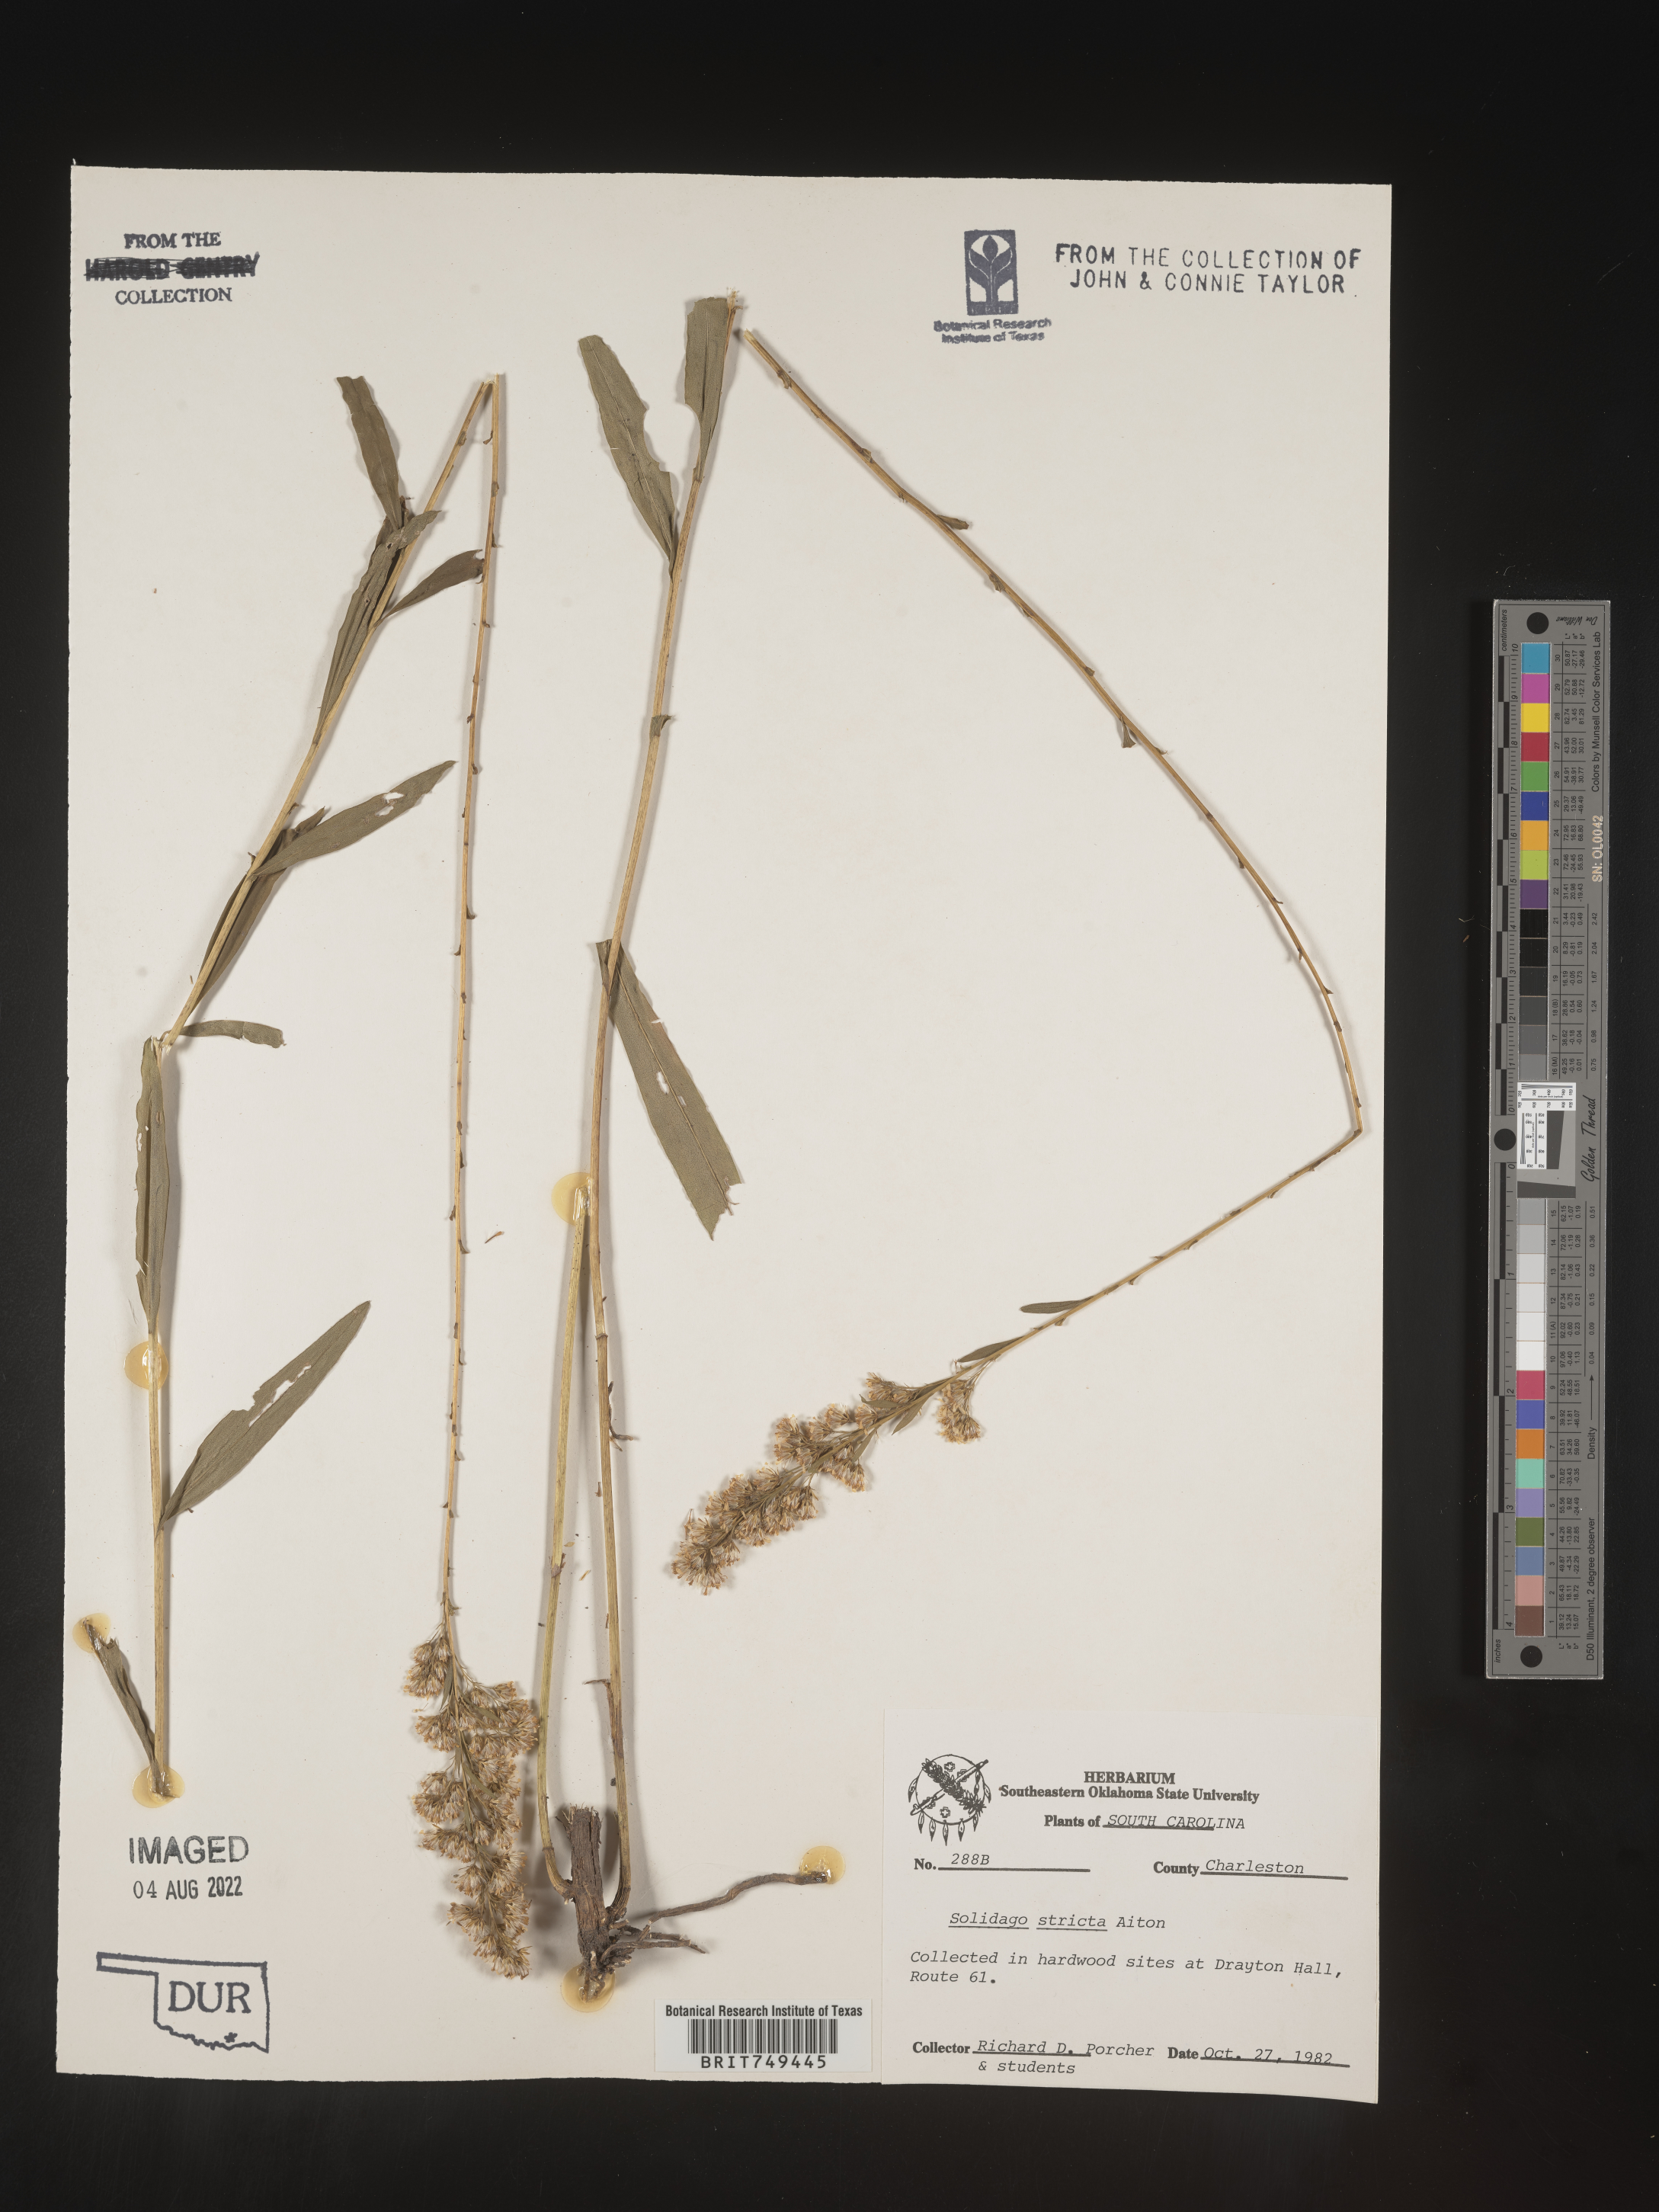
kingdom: Plantae
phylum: Tracheophyta
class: Magnoliopsida
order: Asterales
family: Asteraceae
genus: Solidago
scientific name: Solidago stricta
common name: Pine barren bog goldenrod
